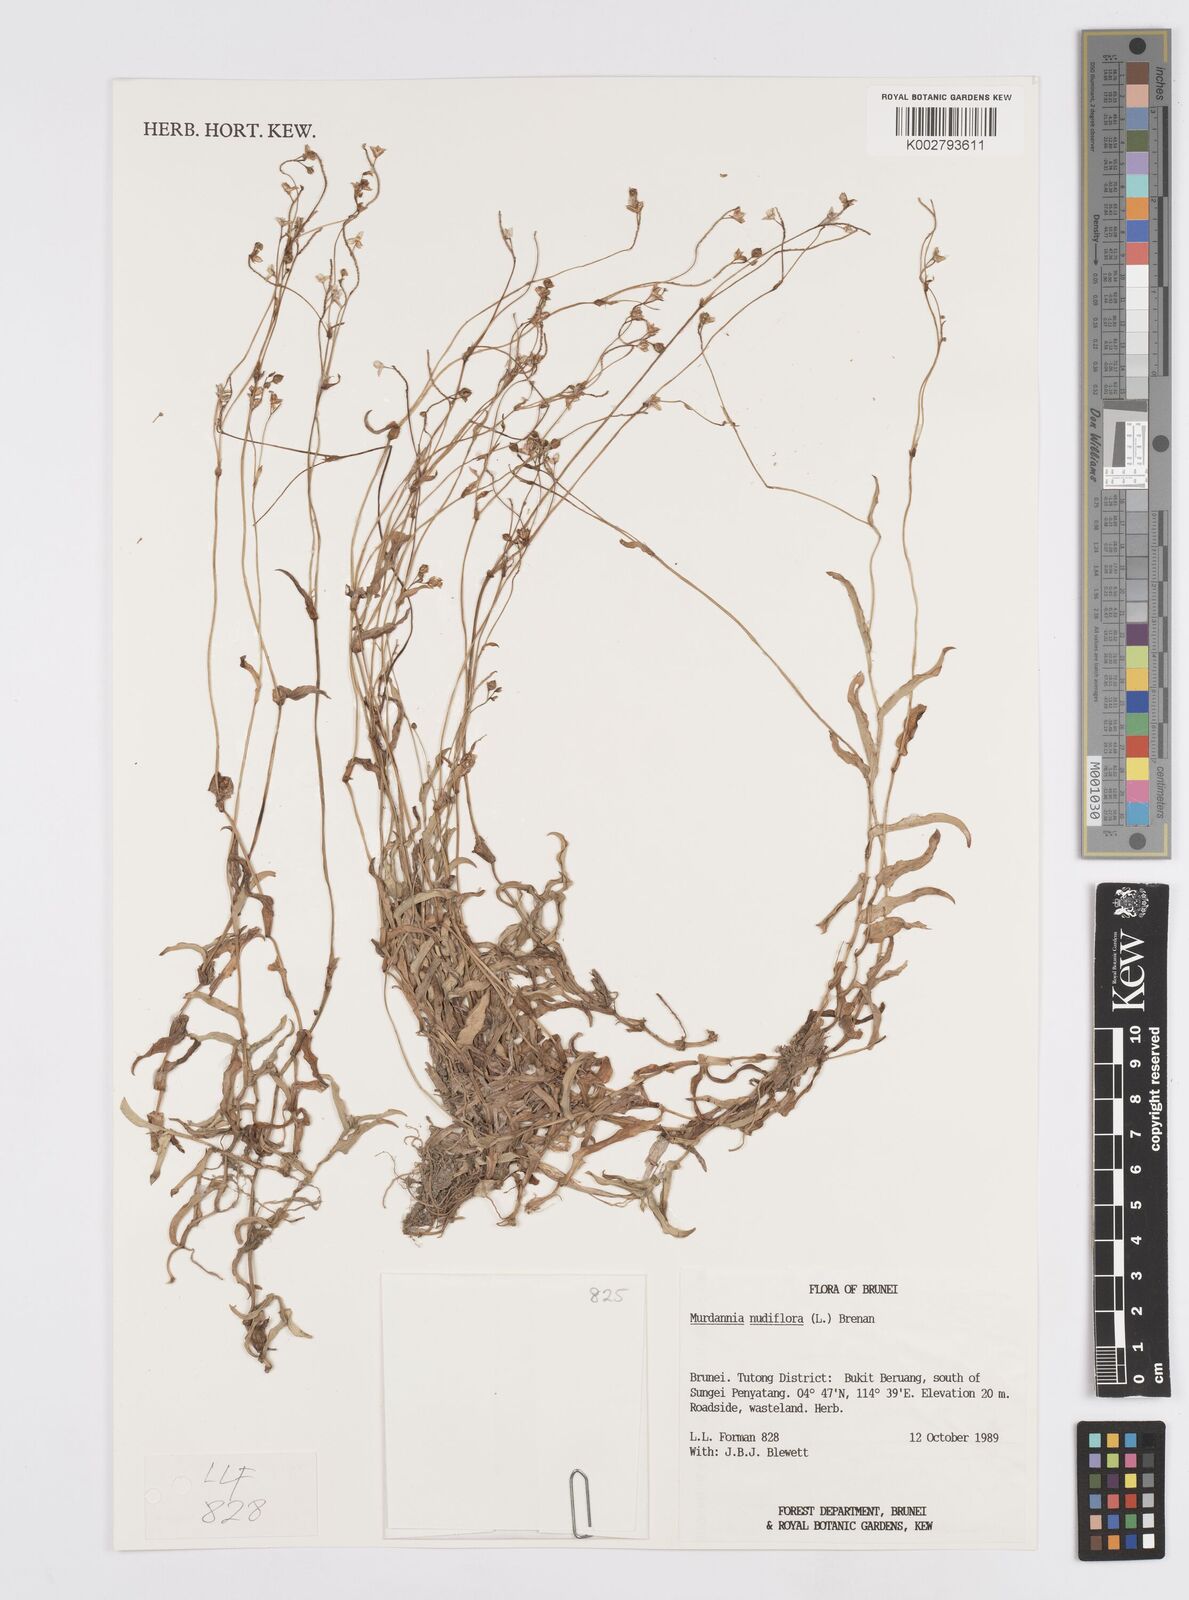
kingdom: Plantae
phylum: Tracheophyta
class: Liliopsida
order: Commelinales
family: Commelinaceae
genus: Murdannia
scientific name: Murdannia nudiflora
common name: Nakedstem dewflower
